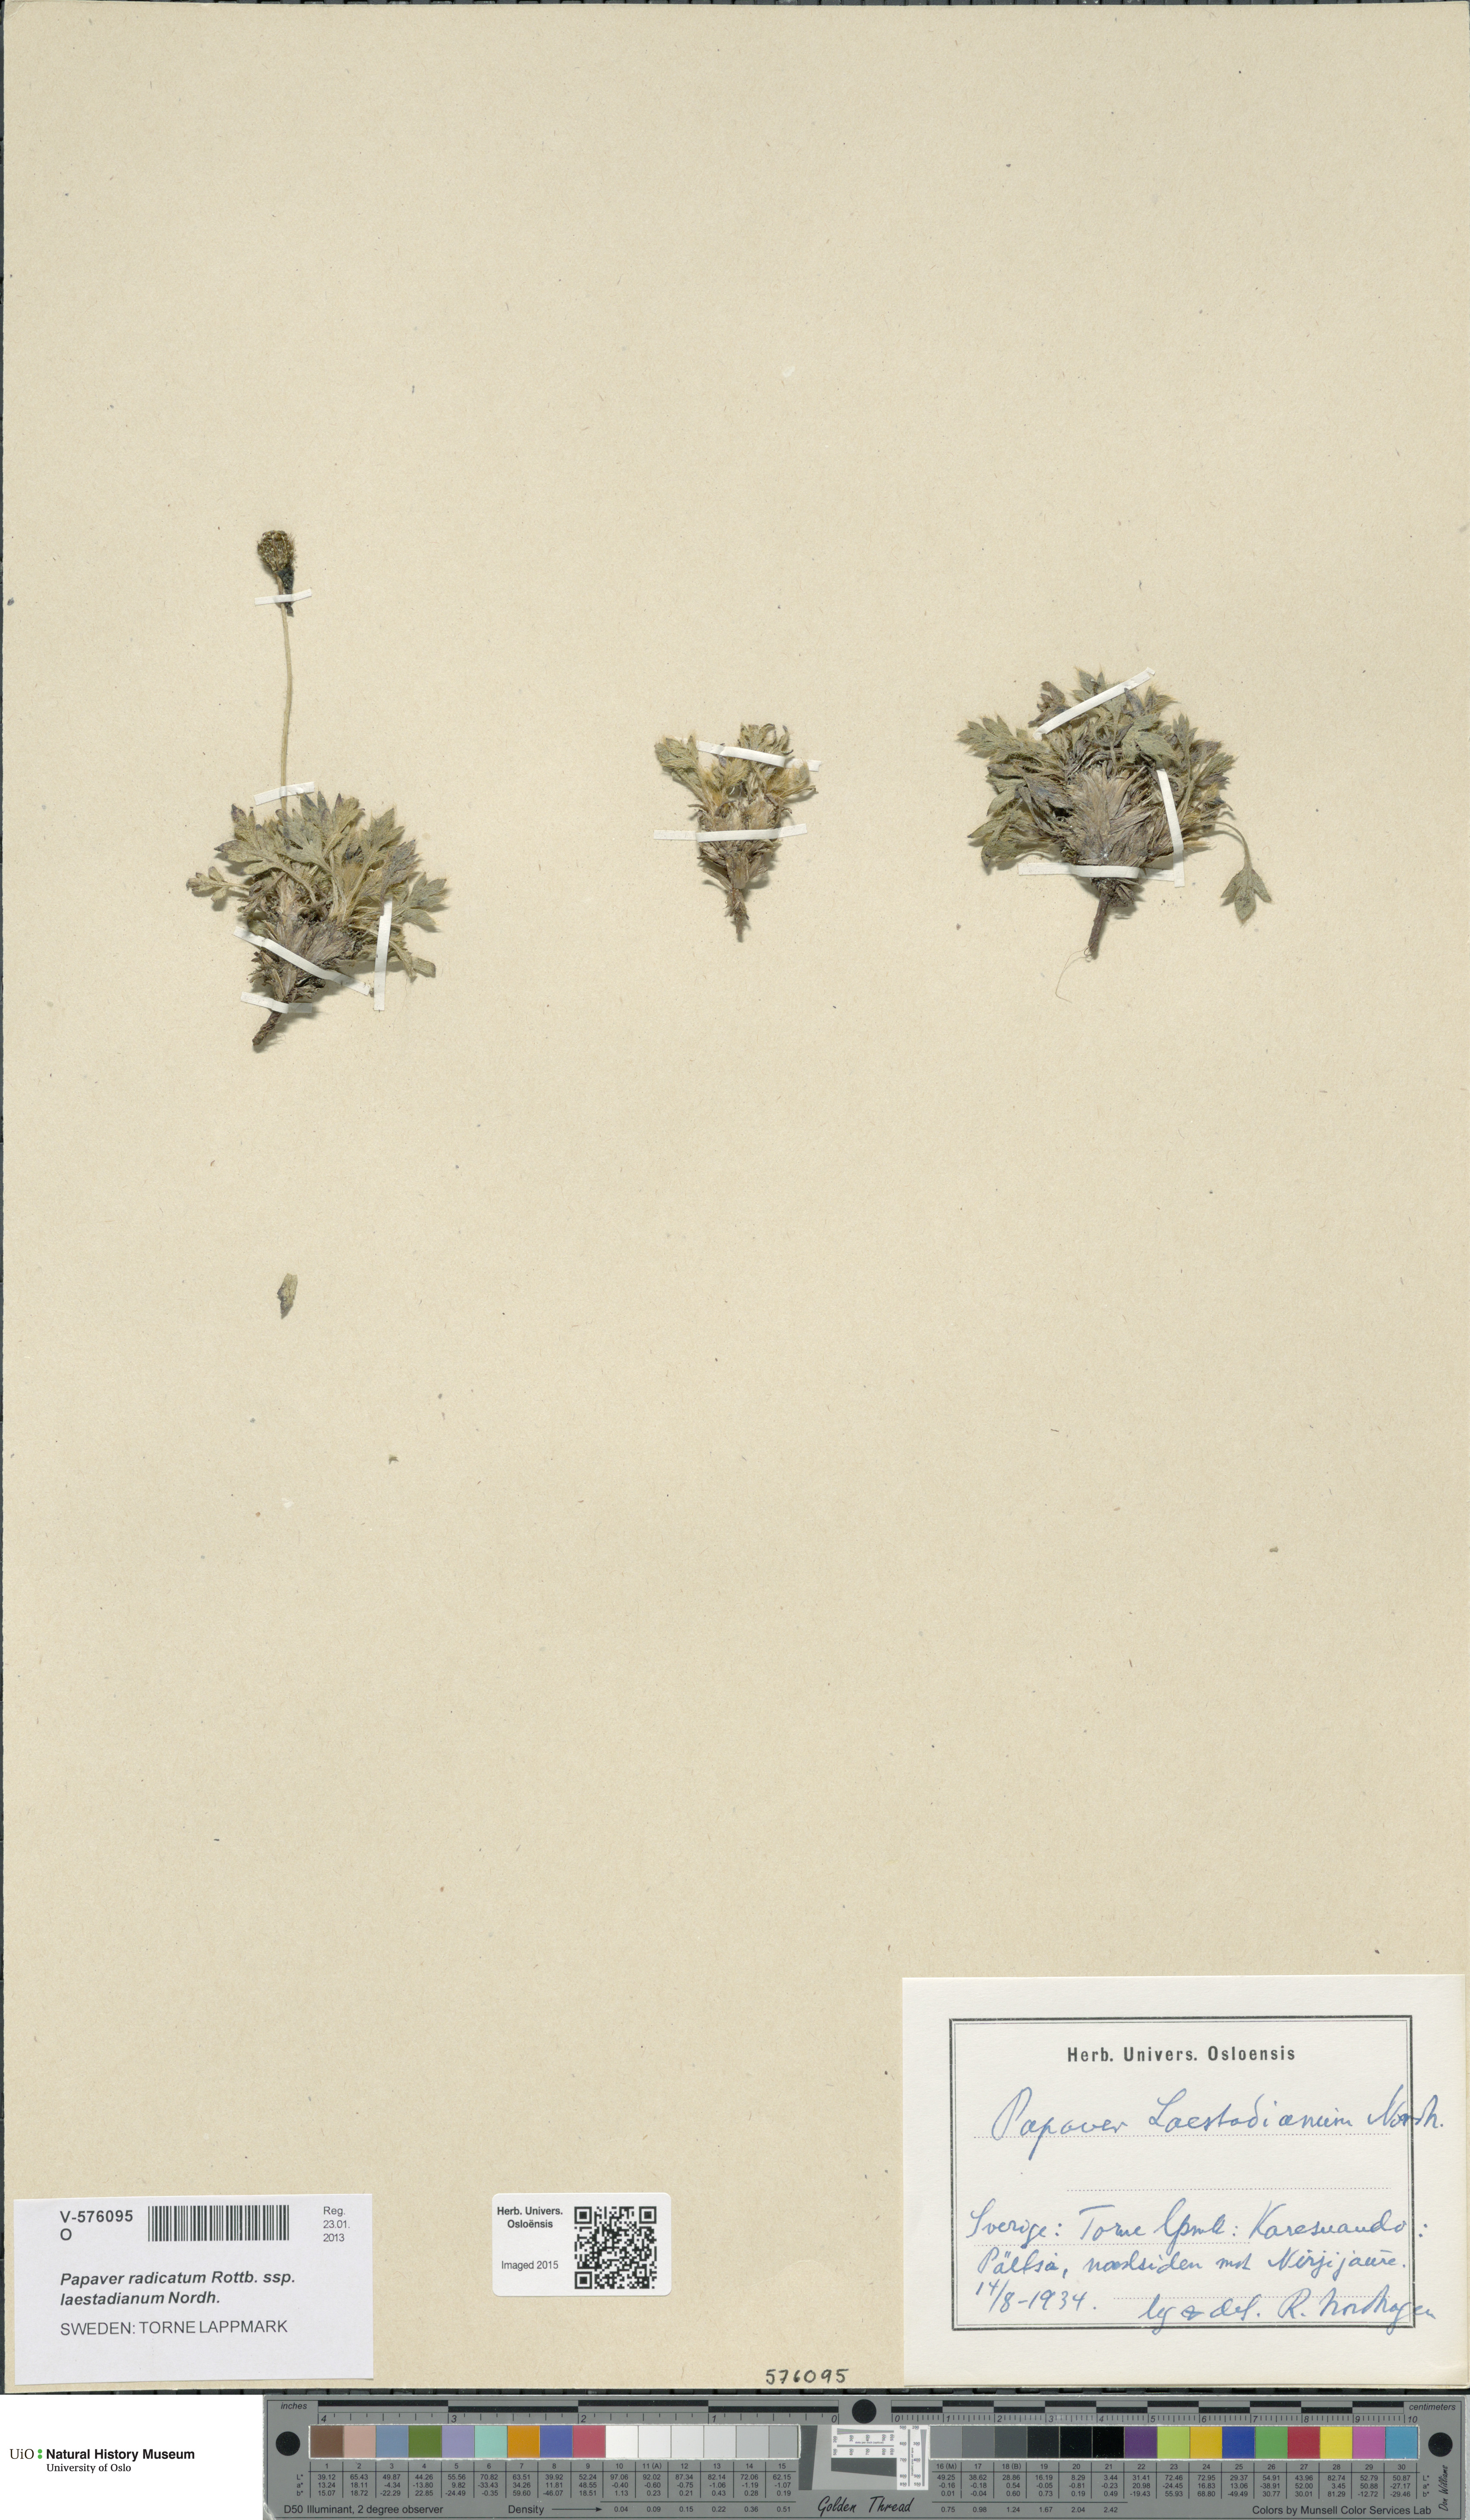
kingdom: Plantae
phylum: Tracheophyta
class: Magnoliopsida
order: Ranunculales
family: Papaveraceae
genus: Papaver
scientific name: Papaver laestadianum
